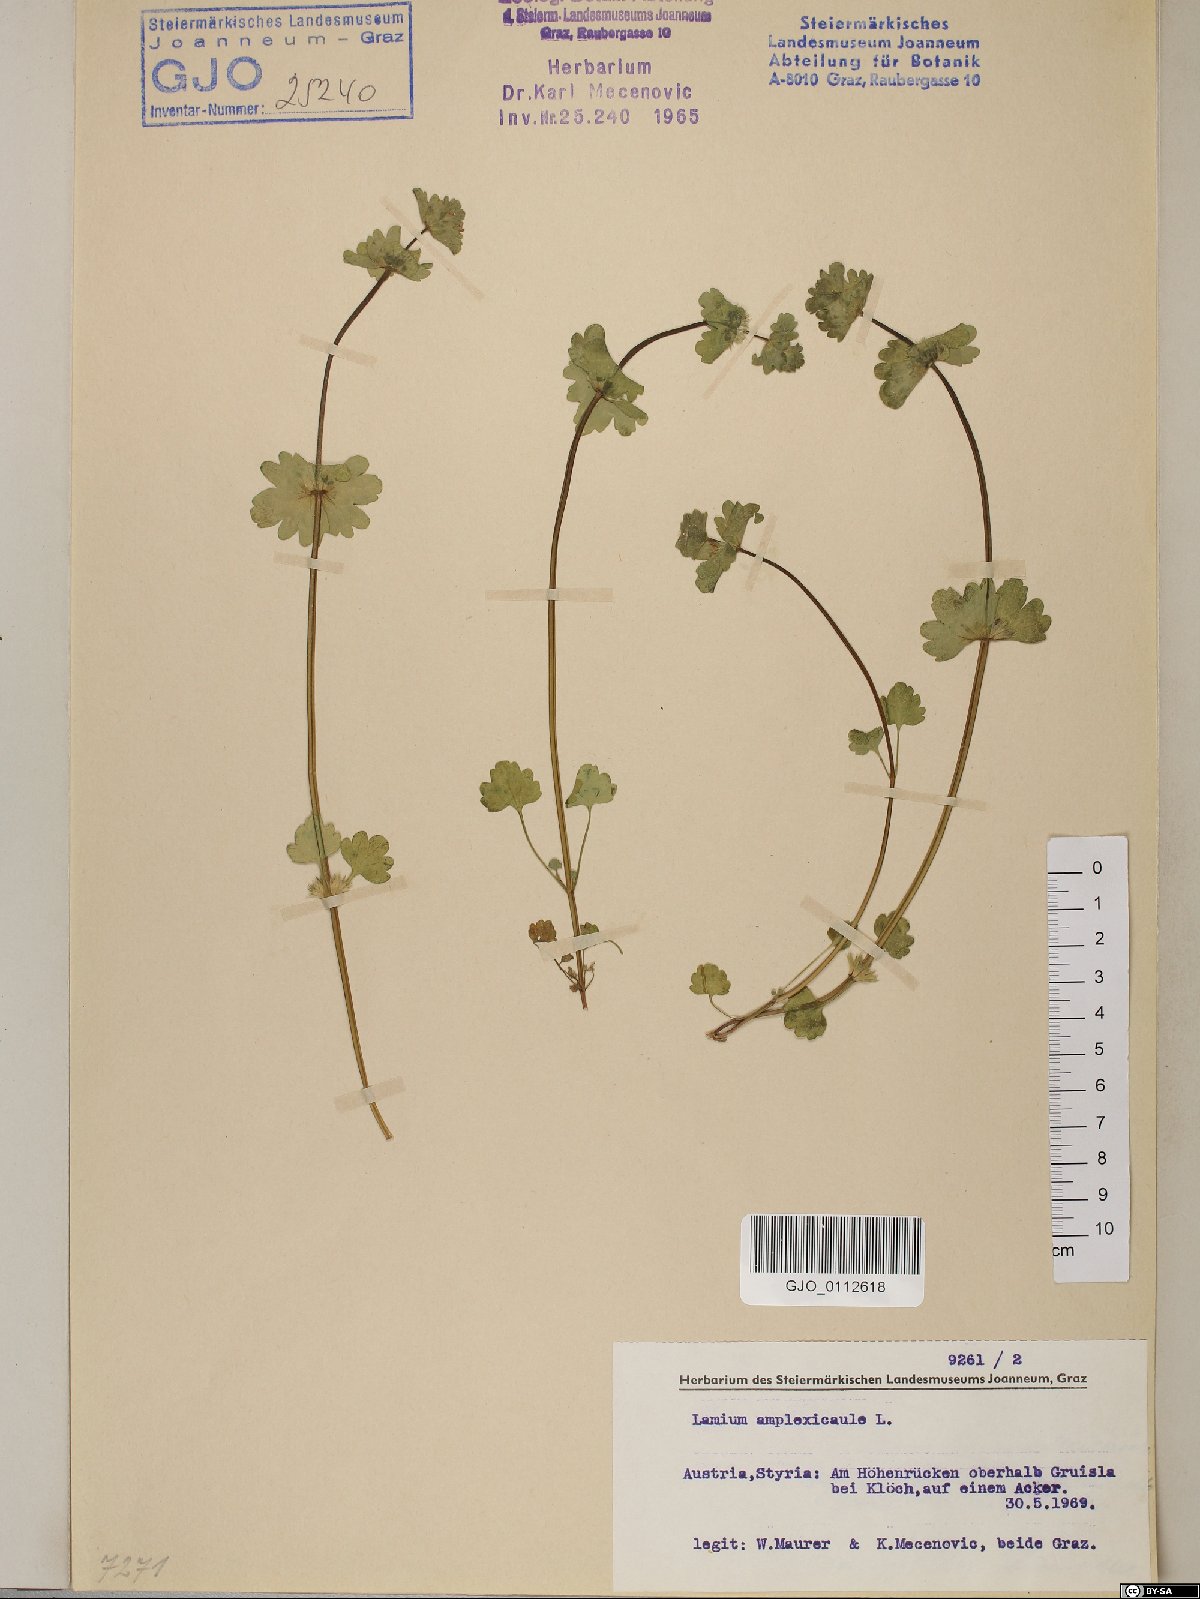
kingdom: Plantae
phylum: Tracheophyta
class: Magnoliopsida
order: Lamiales
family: Lamiaceae
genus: Lamium
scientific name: Lamium amplexicaule
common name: Henbit dead-nettle
